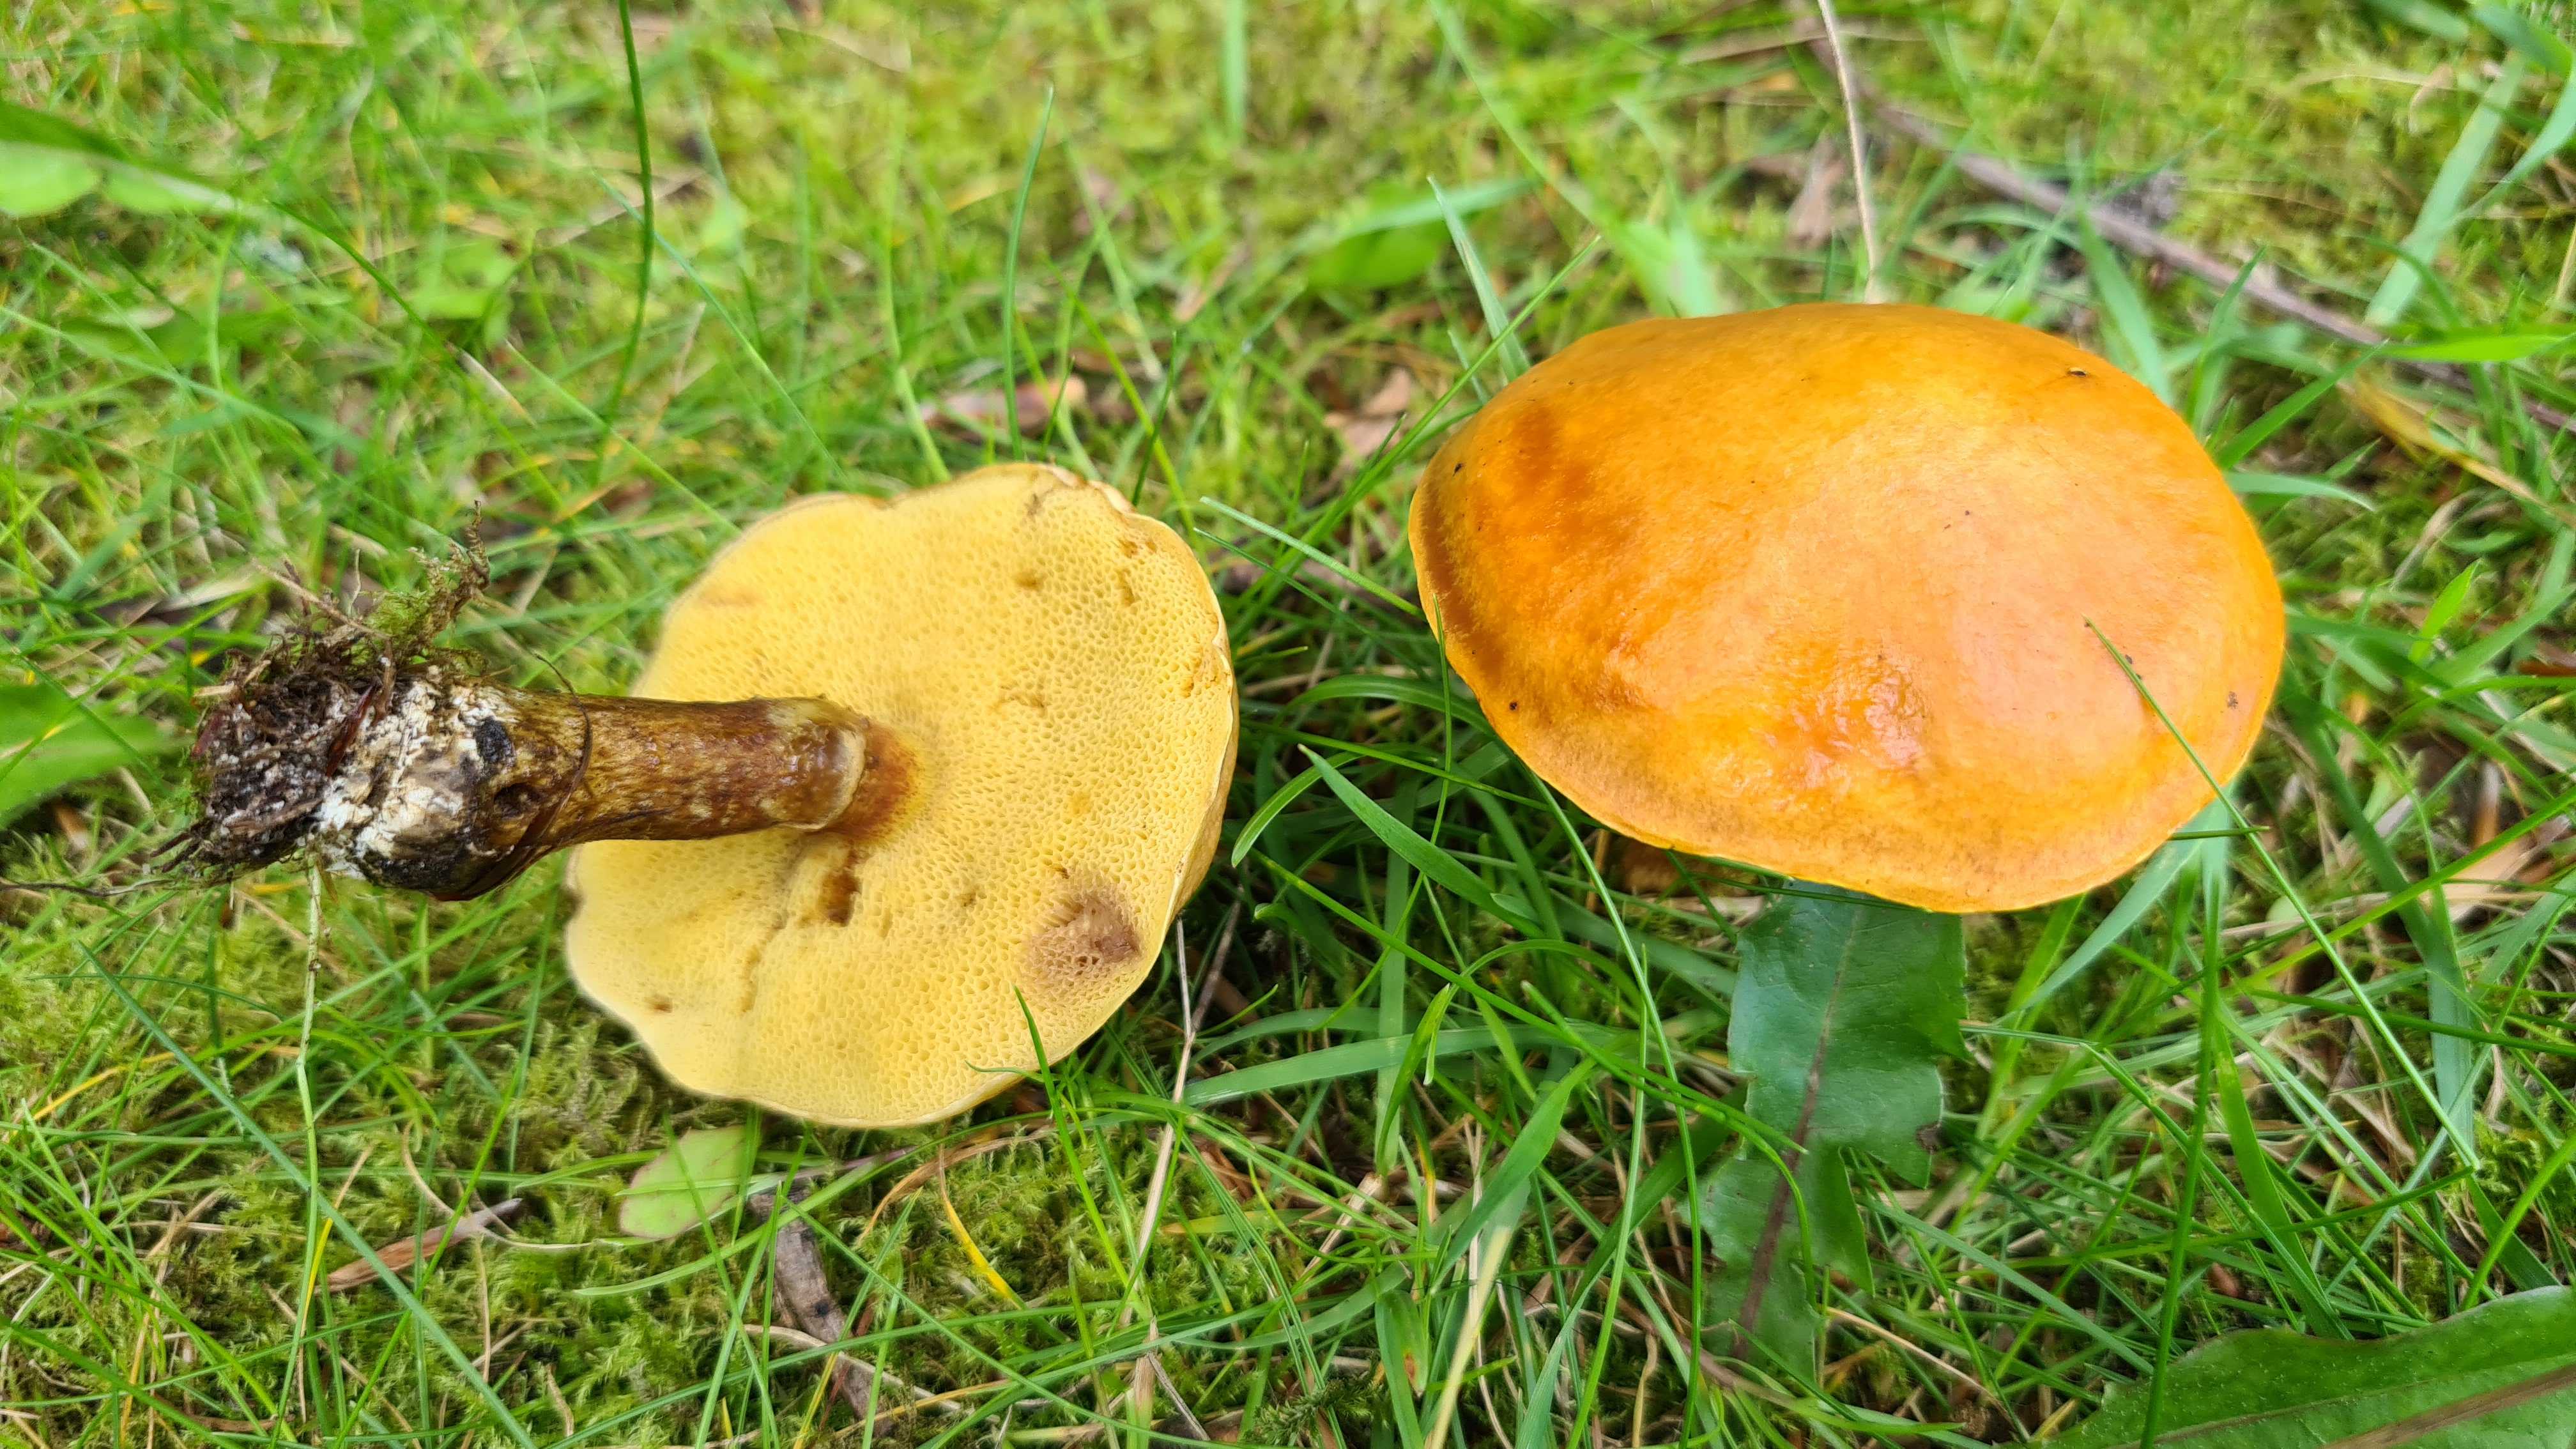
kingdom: Fungi
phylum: Basidiomycota
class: Agaricomycetes
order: Boletales
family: Suillaceae
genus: Suillus
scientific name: Suillus grevillei
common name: lærke-slimrørhat
